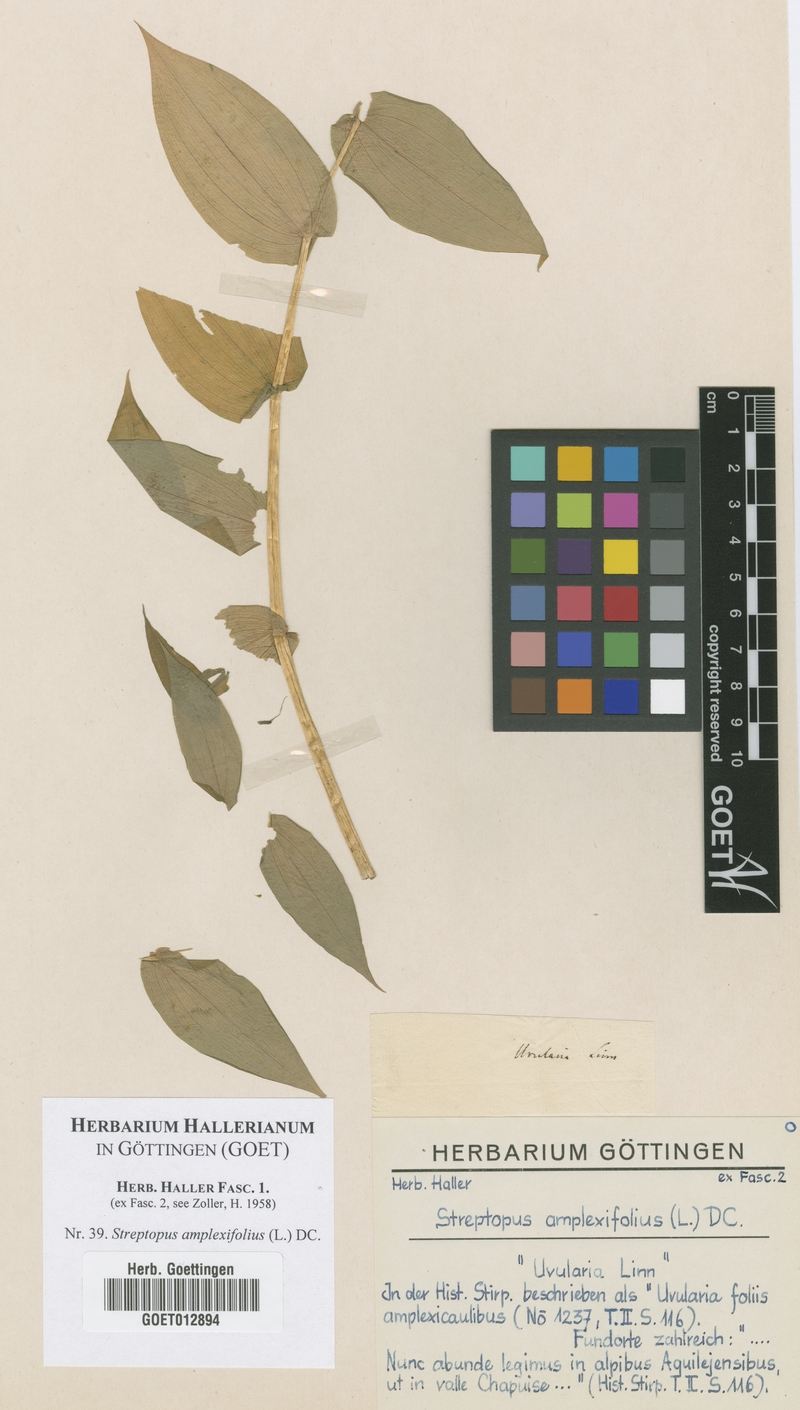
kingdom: Plantae
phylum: Tracheophyta
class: Liliopsida
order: Liliales
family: Liliaceae
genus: Streptopus
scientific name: Streptopus amplexifolius
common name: Clasp twisted stalk
